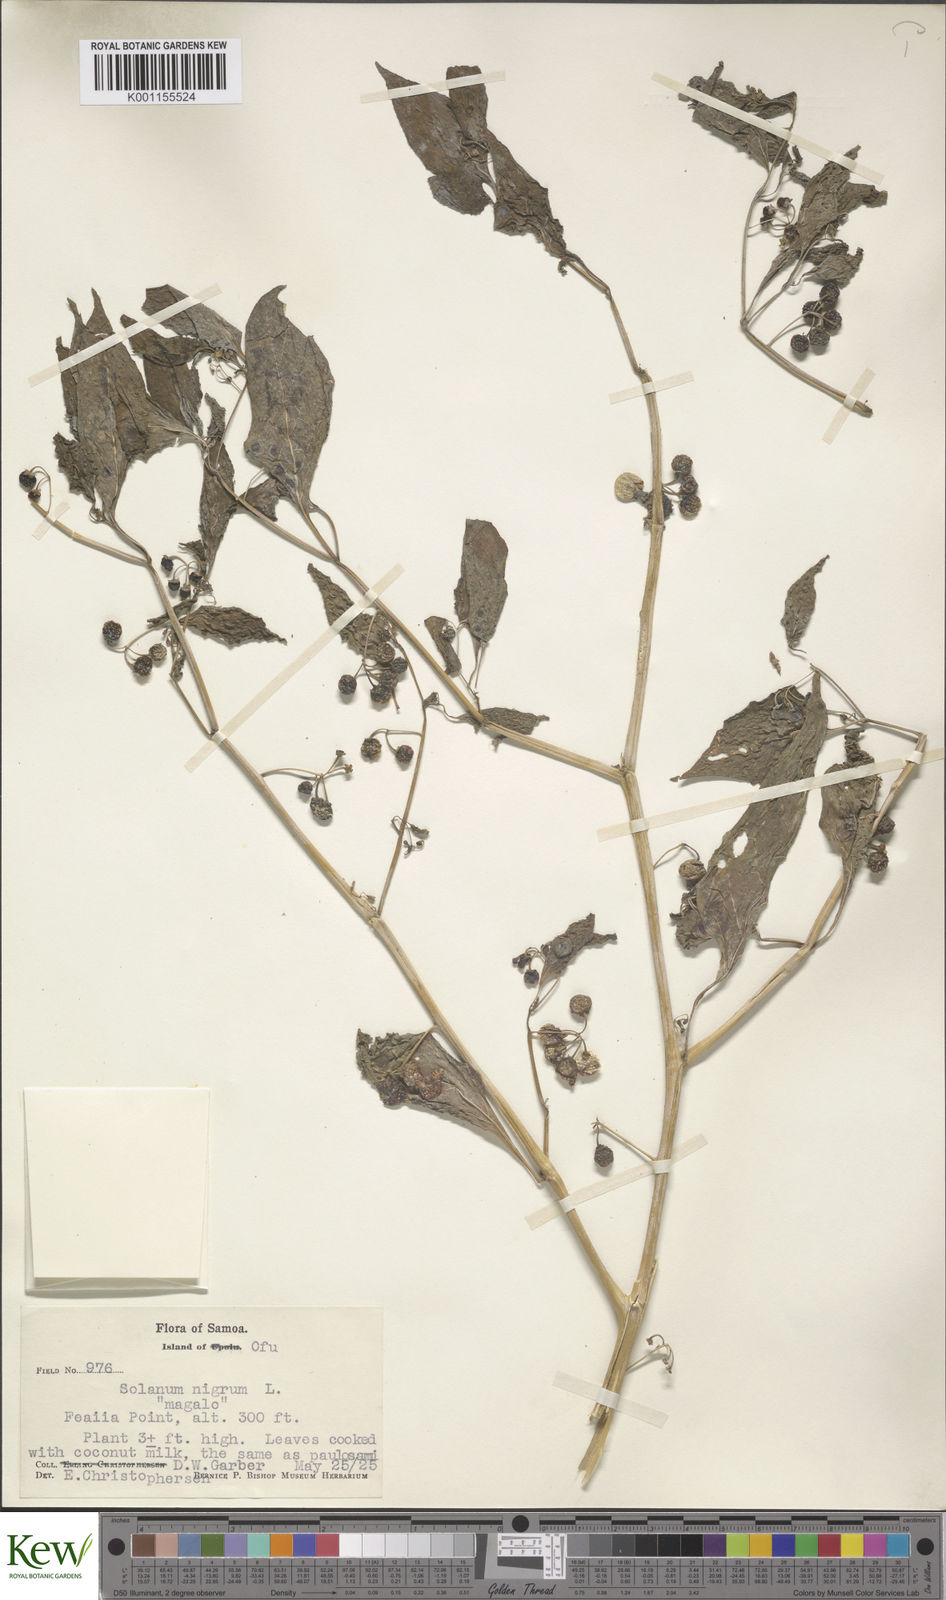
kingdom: Plantae
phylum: Tracheophyta
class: Magnoliopsida
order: Solanales
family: Solanaceae
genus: Solanum
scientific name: Solanum americanum
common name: American black nightshade
